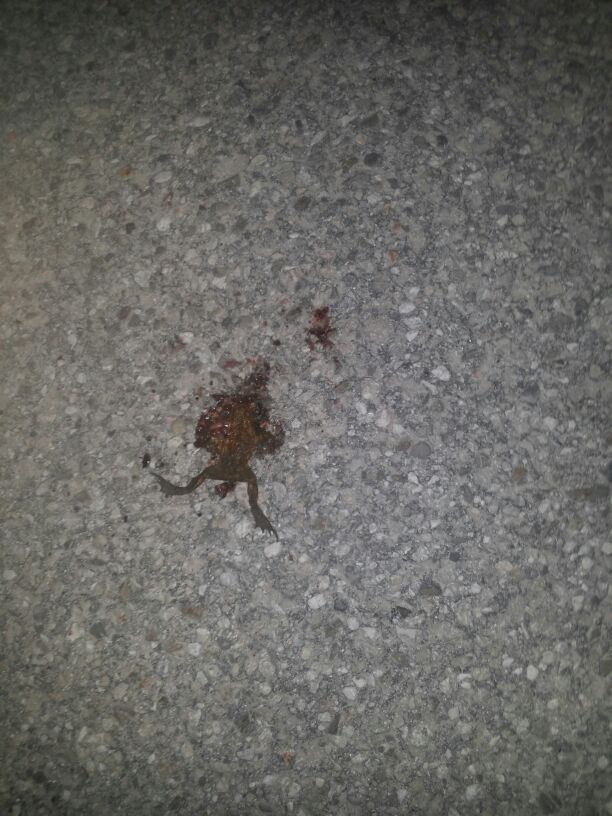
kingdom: Animalia
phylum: Chordata
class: Amphibia
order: Anura
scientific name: Anura
